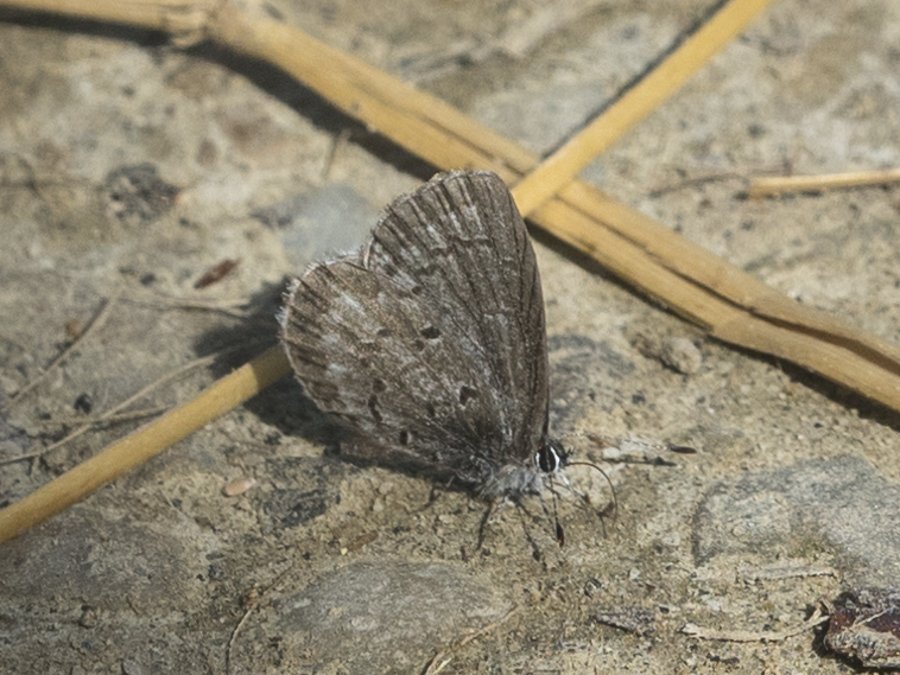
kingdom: Animalia
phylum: Arthropoda
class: Insecta
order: Lepidoptera
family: Lycaenidae
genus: Celastrina
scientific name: Celastrina lucia
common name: Northern Spring Azure
